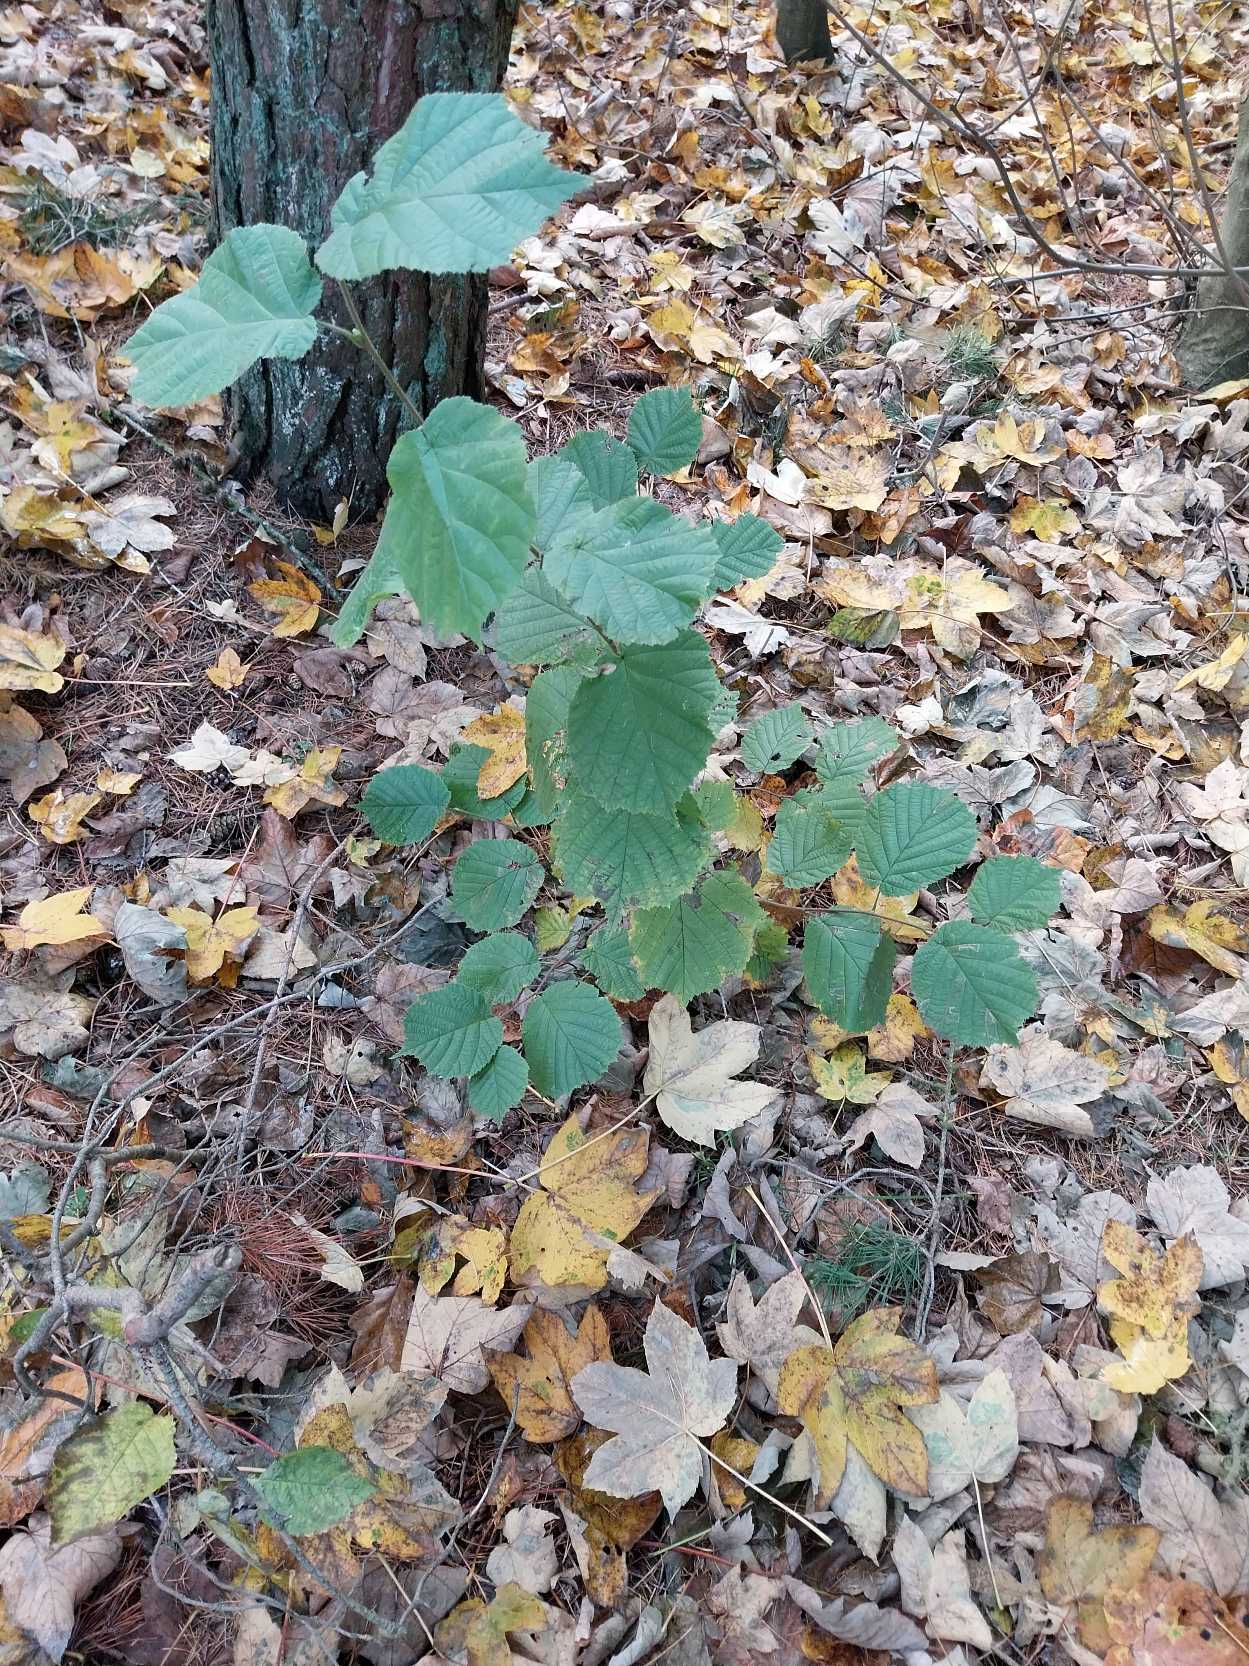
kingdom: Plantae
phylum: Tracheophyta
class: Magnoliopsida
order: Fagales
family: Betulaceae
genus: Corylus
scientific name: Corylus avellana
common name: Hassel
